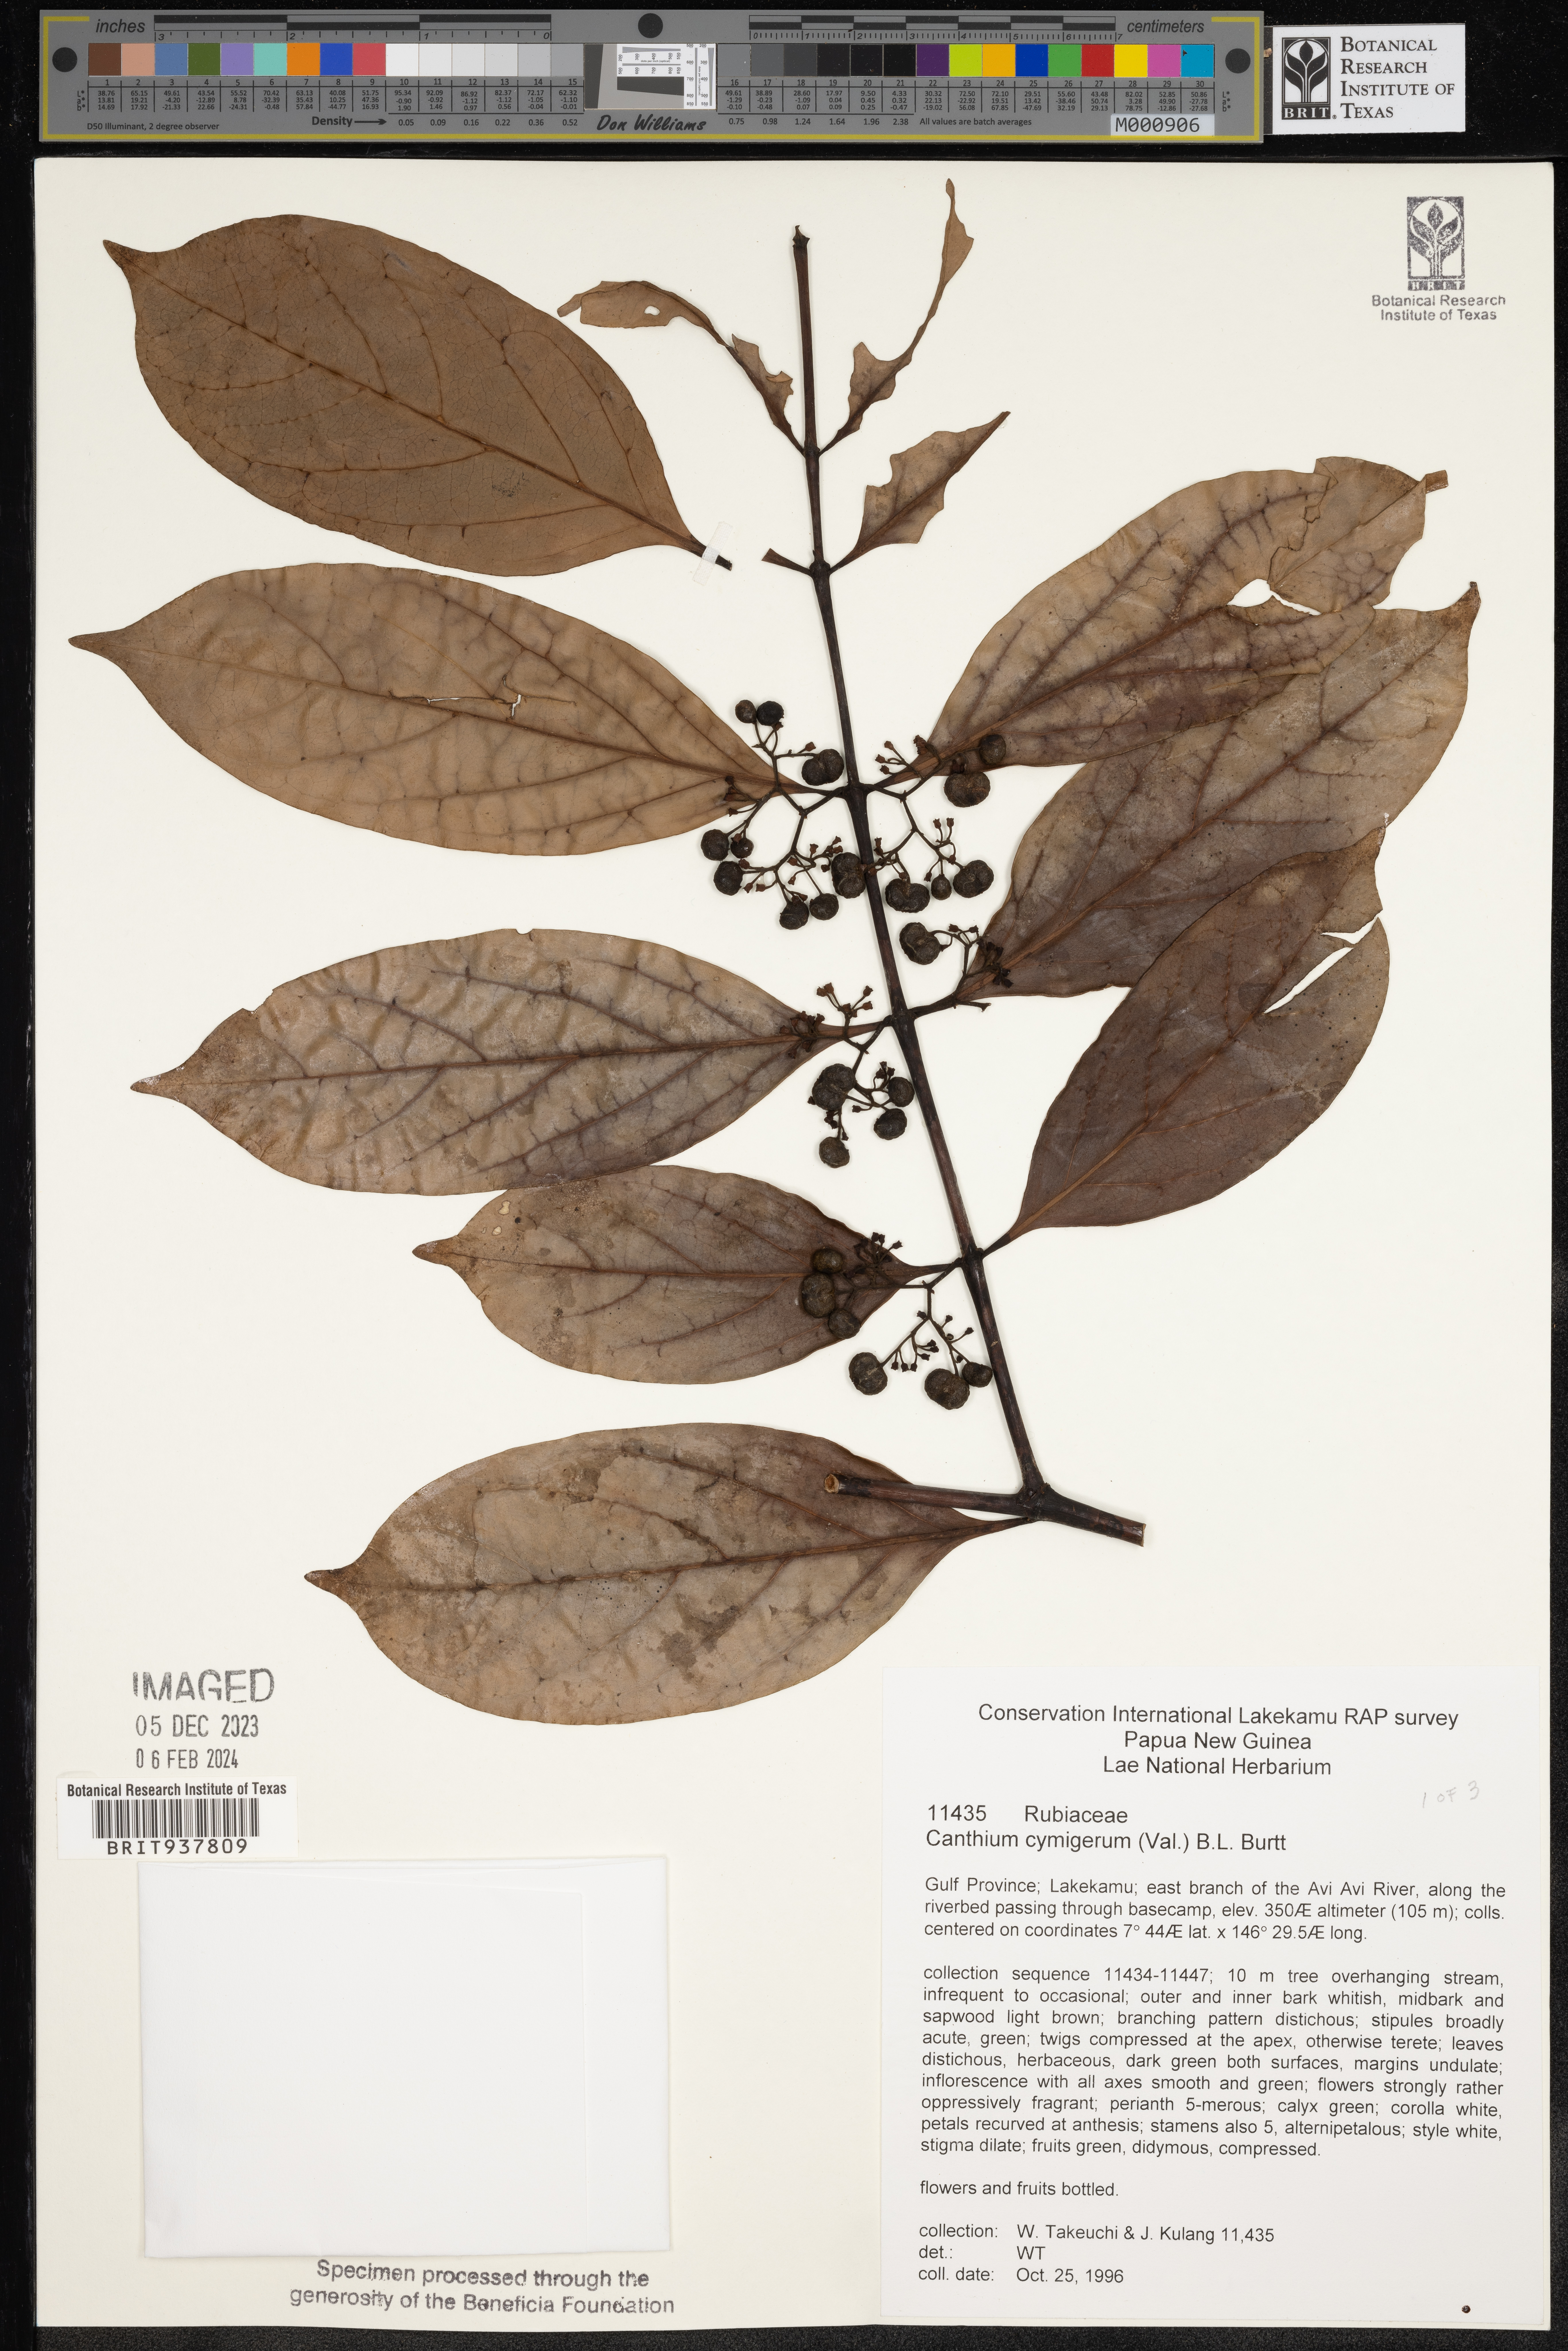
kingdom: Plantae
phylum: Tracheophyta
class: Magnoliopsida
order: Gentianales
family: Rubiaceae
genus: Canthium
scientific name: Canthium
